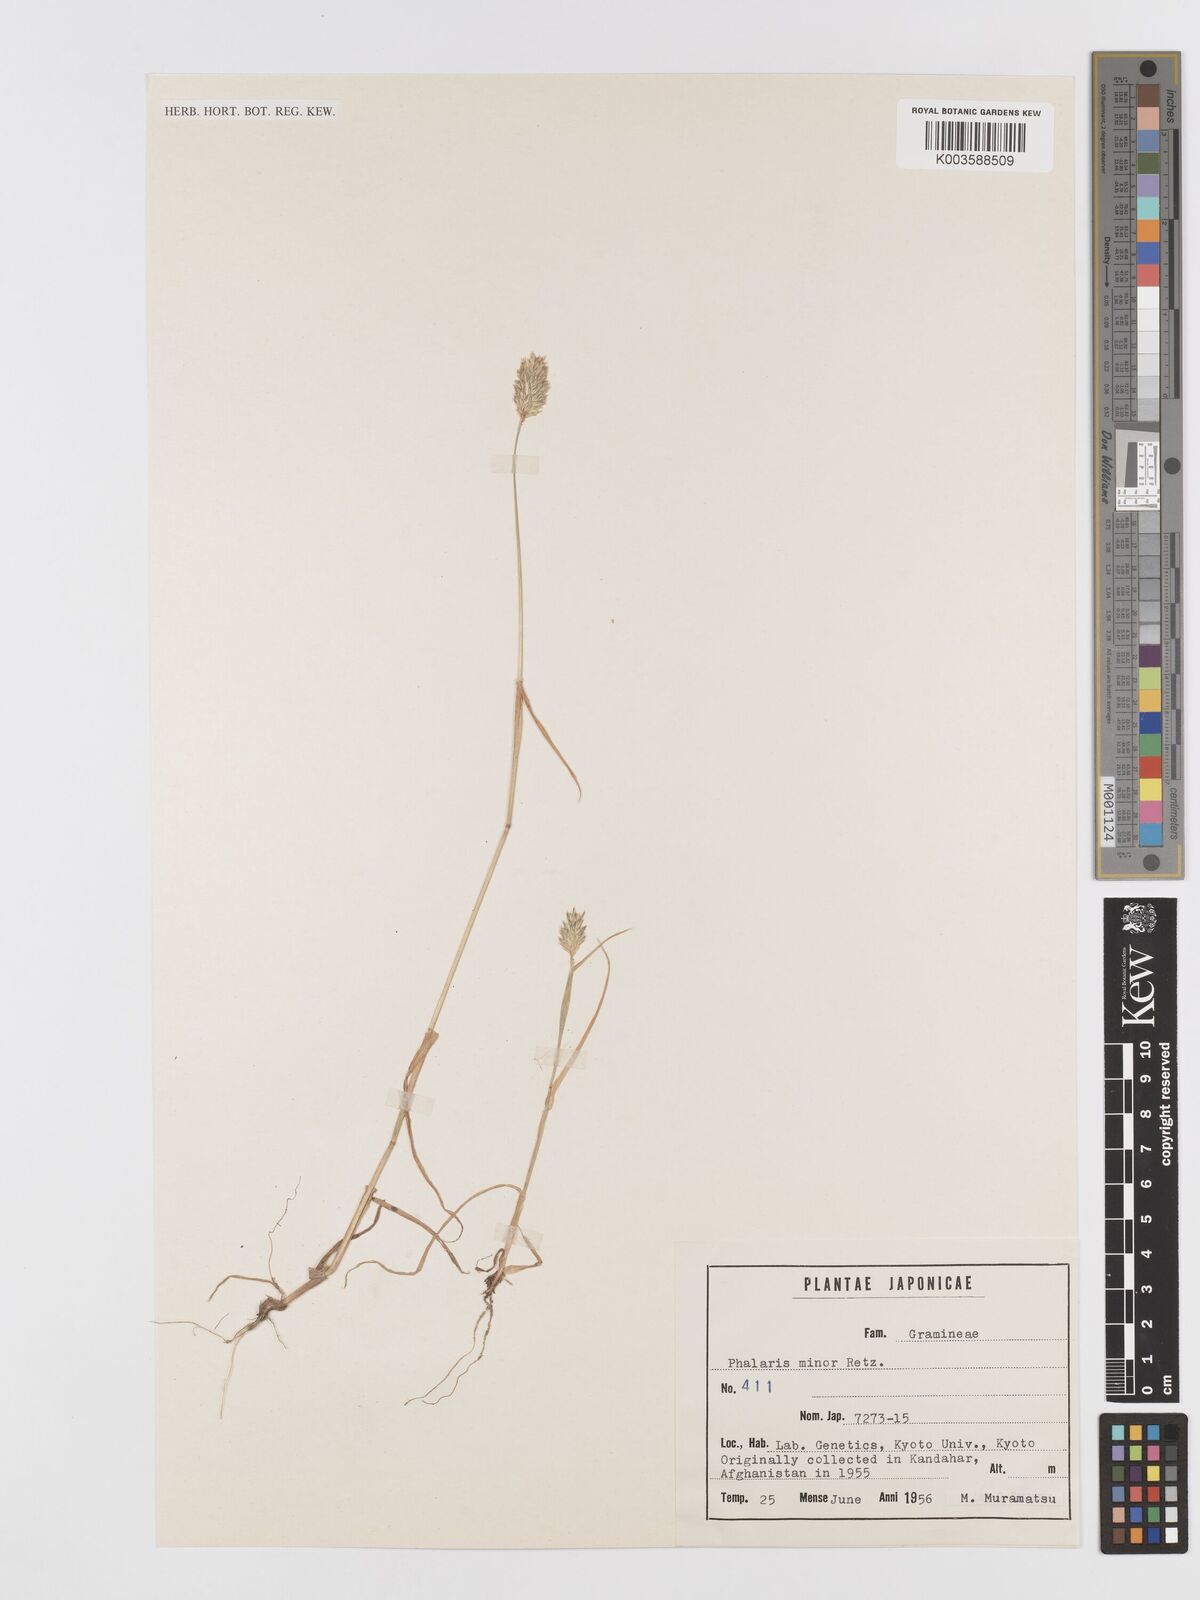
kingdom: Plantae
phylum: Tracheophyta
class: Liliopsida
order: Poales
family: Poaceae
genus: Phalaris
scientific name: Phalaris minor
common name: Littleseed canarygrass
